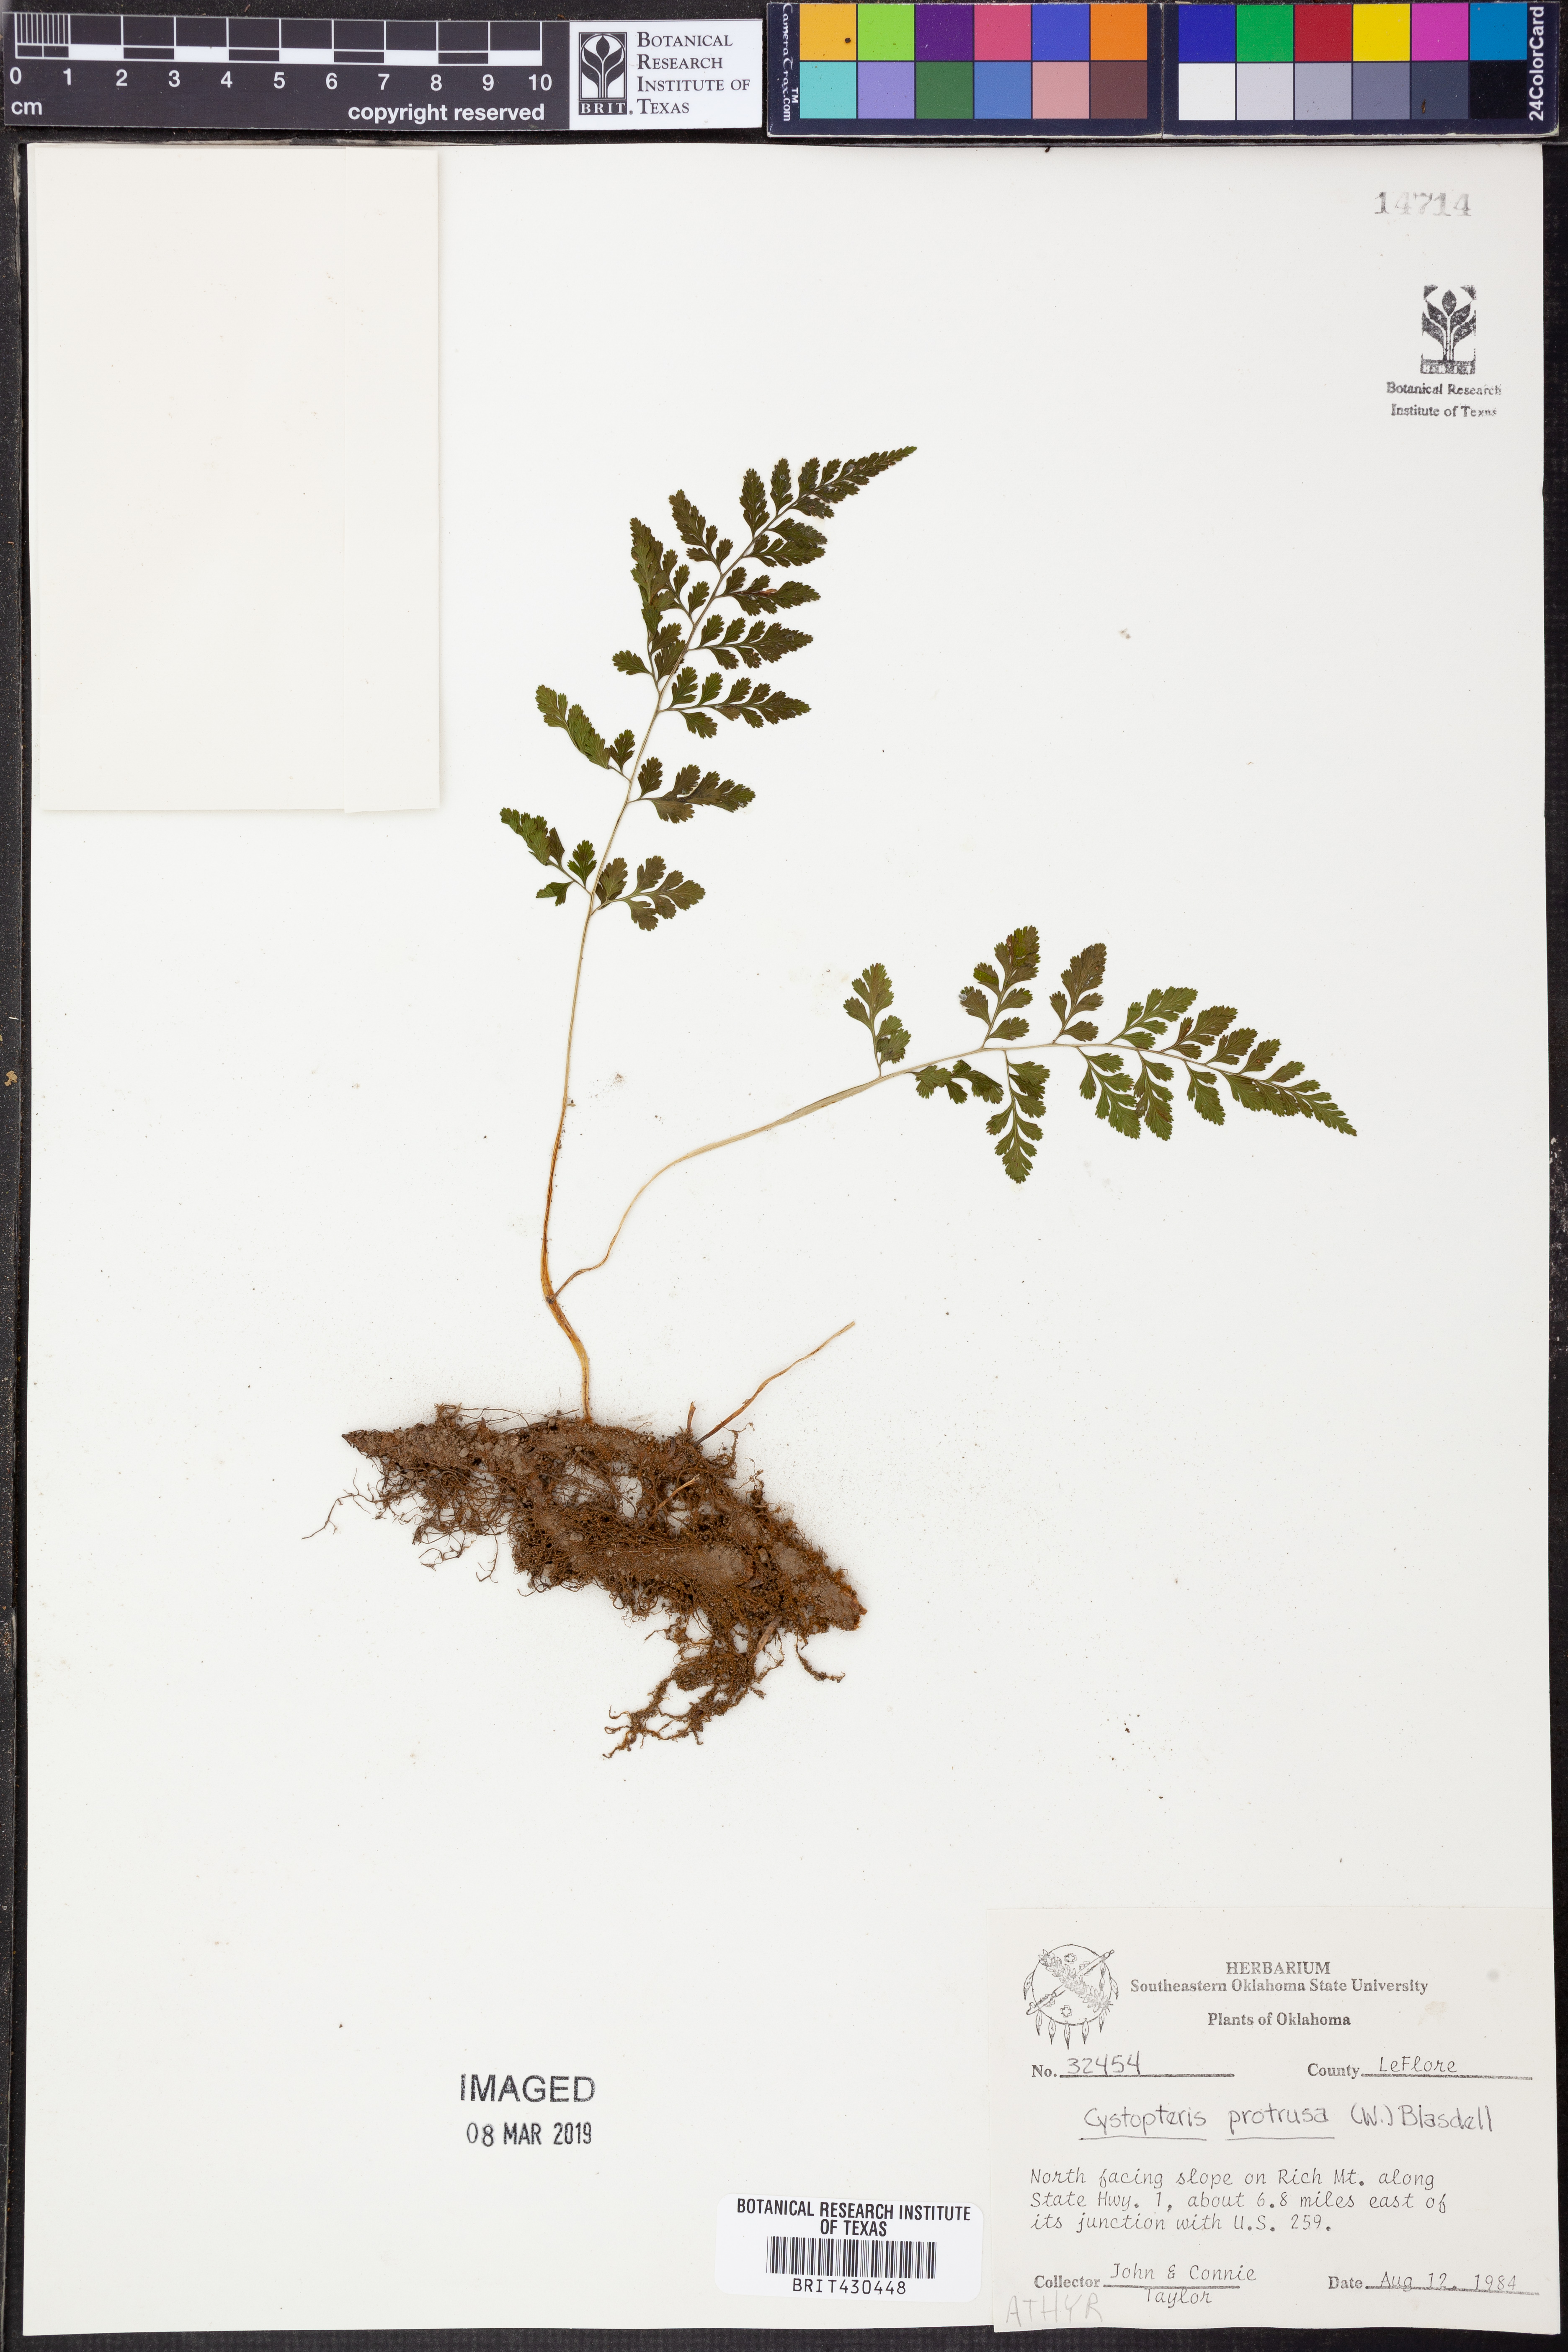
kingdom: Plantae
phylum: Tracheophyta
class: Polypodiopsida
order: Polypodiales
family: Cystopteridaceae
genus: Cystopteris
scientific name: Cystopteris protrusa
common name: Lowland brittle fern
